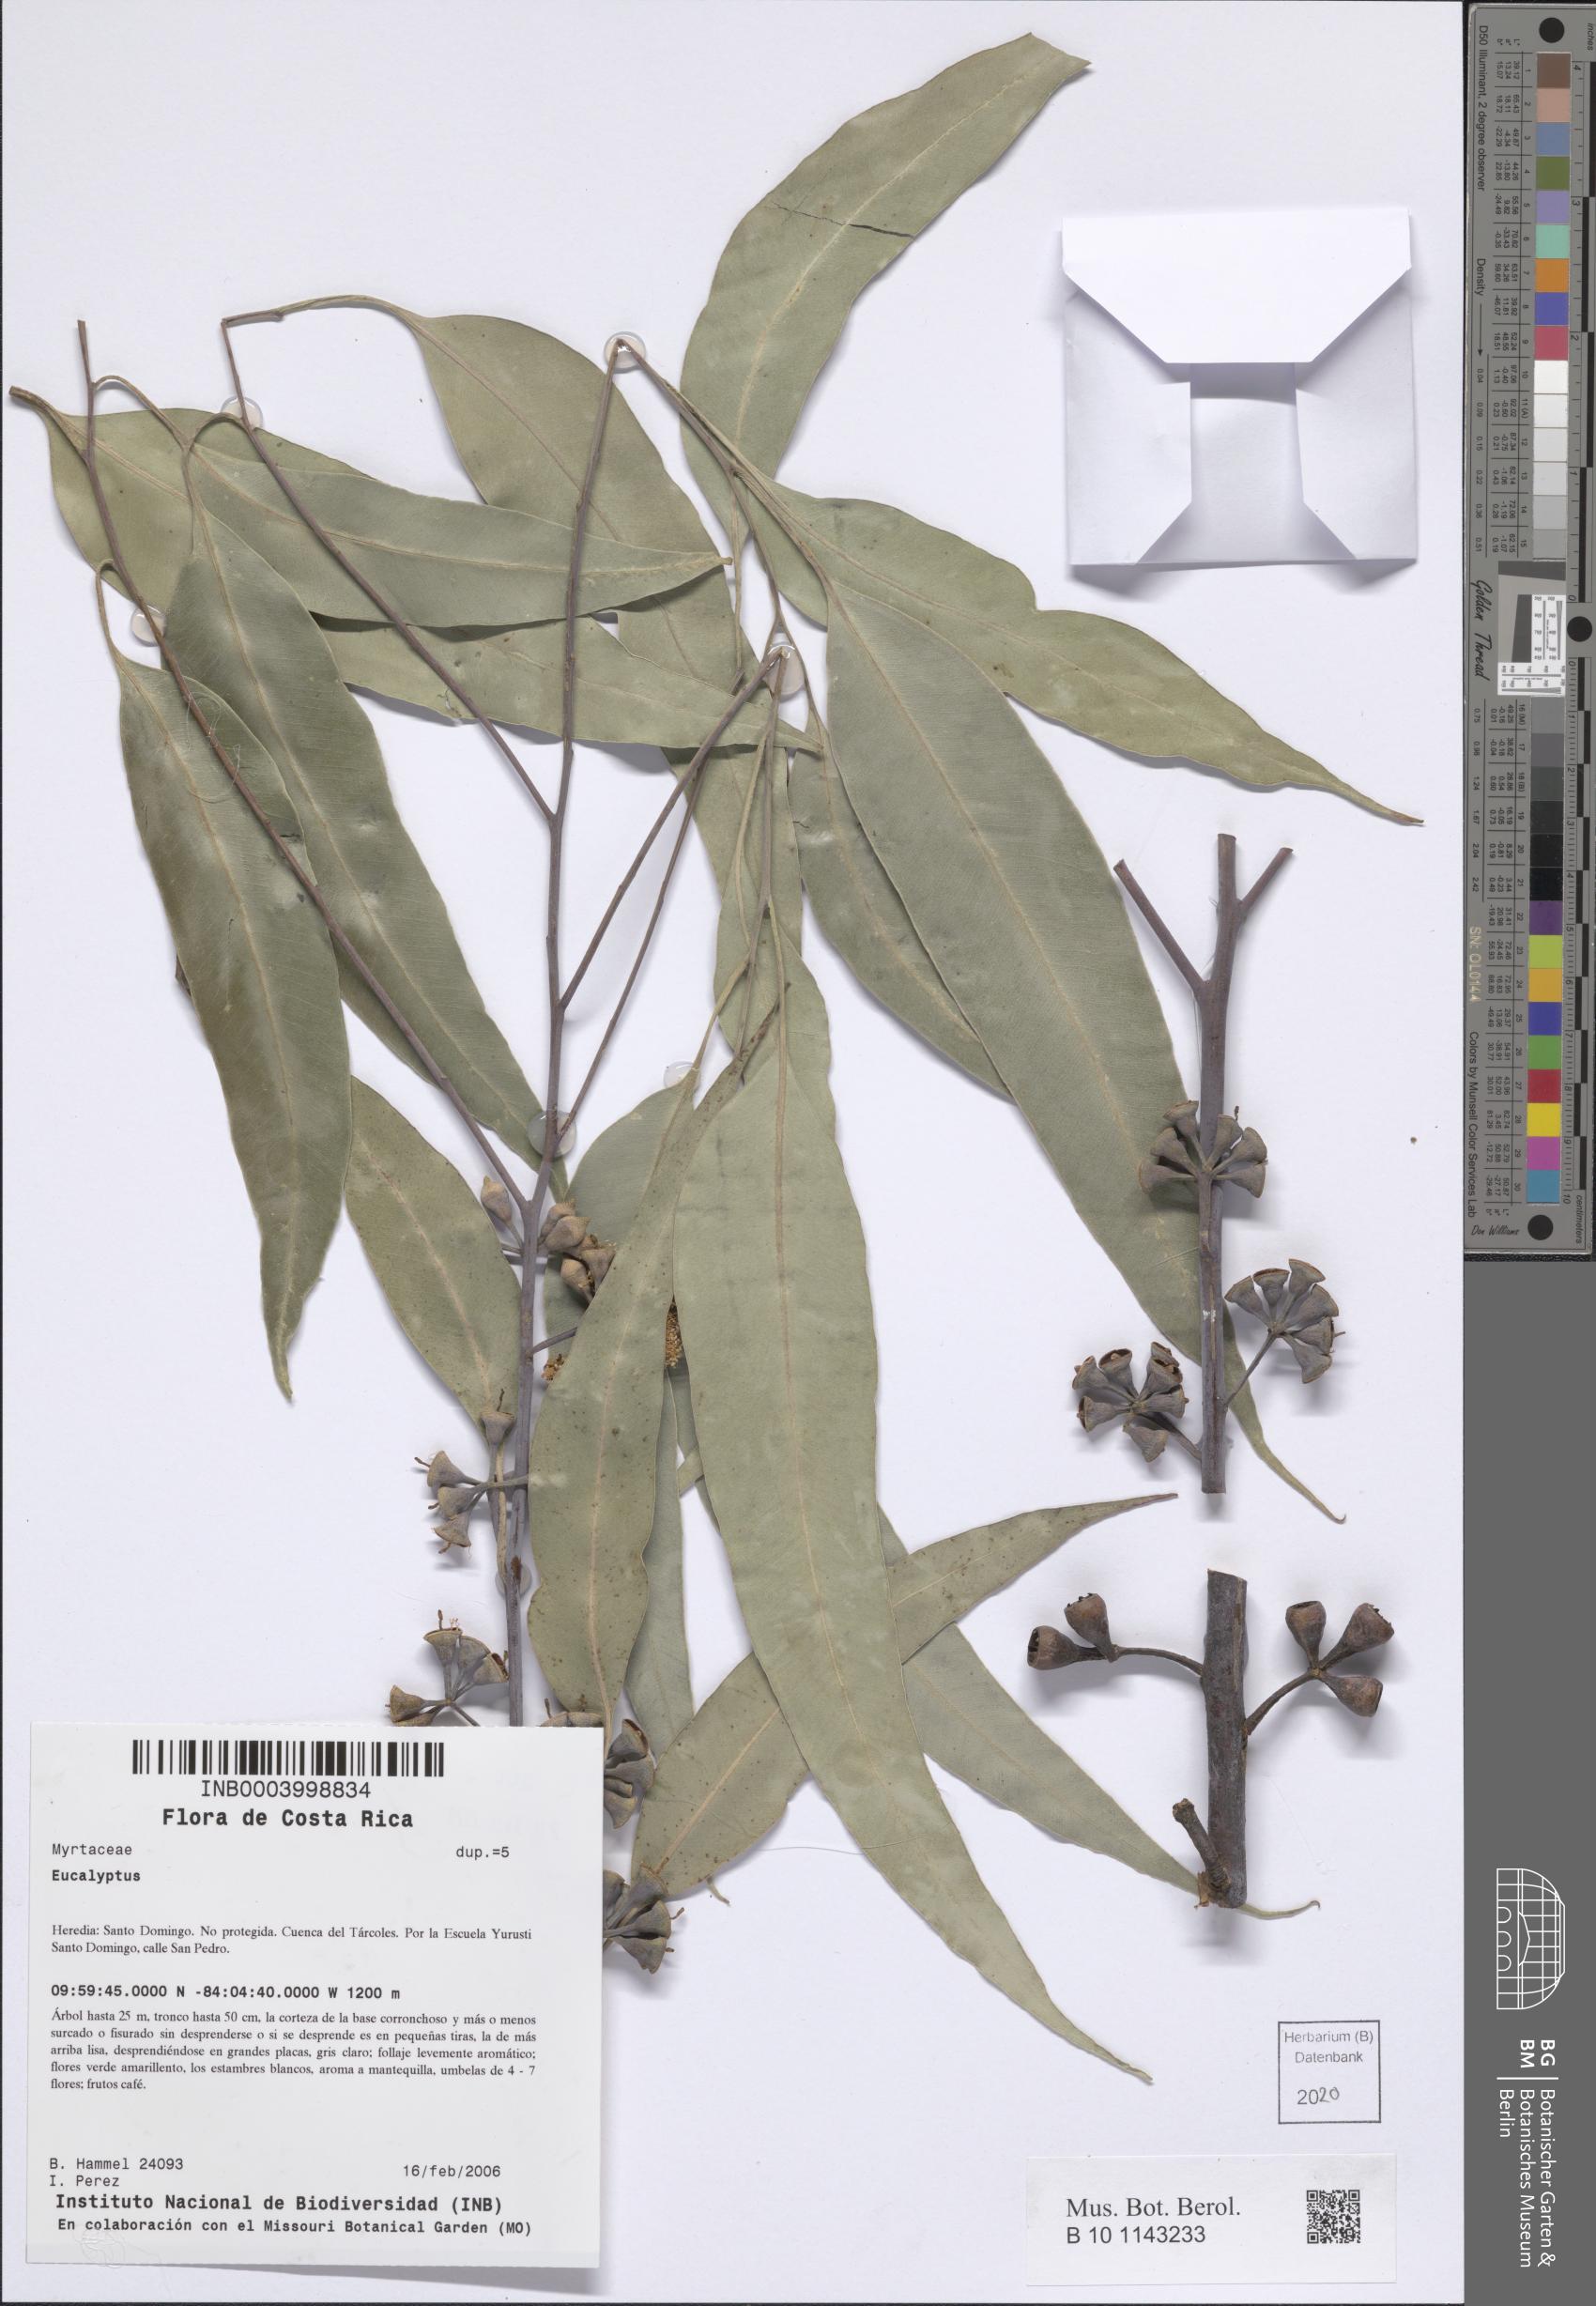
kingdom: Plantae
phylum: Tracheophyta
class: Magnoliopsida
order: Myrtales
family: Myrtaceae
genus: Eucalyptus
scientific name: Eucalyptus
